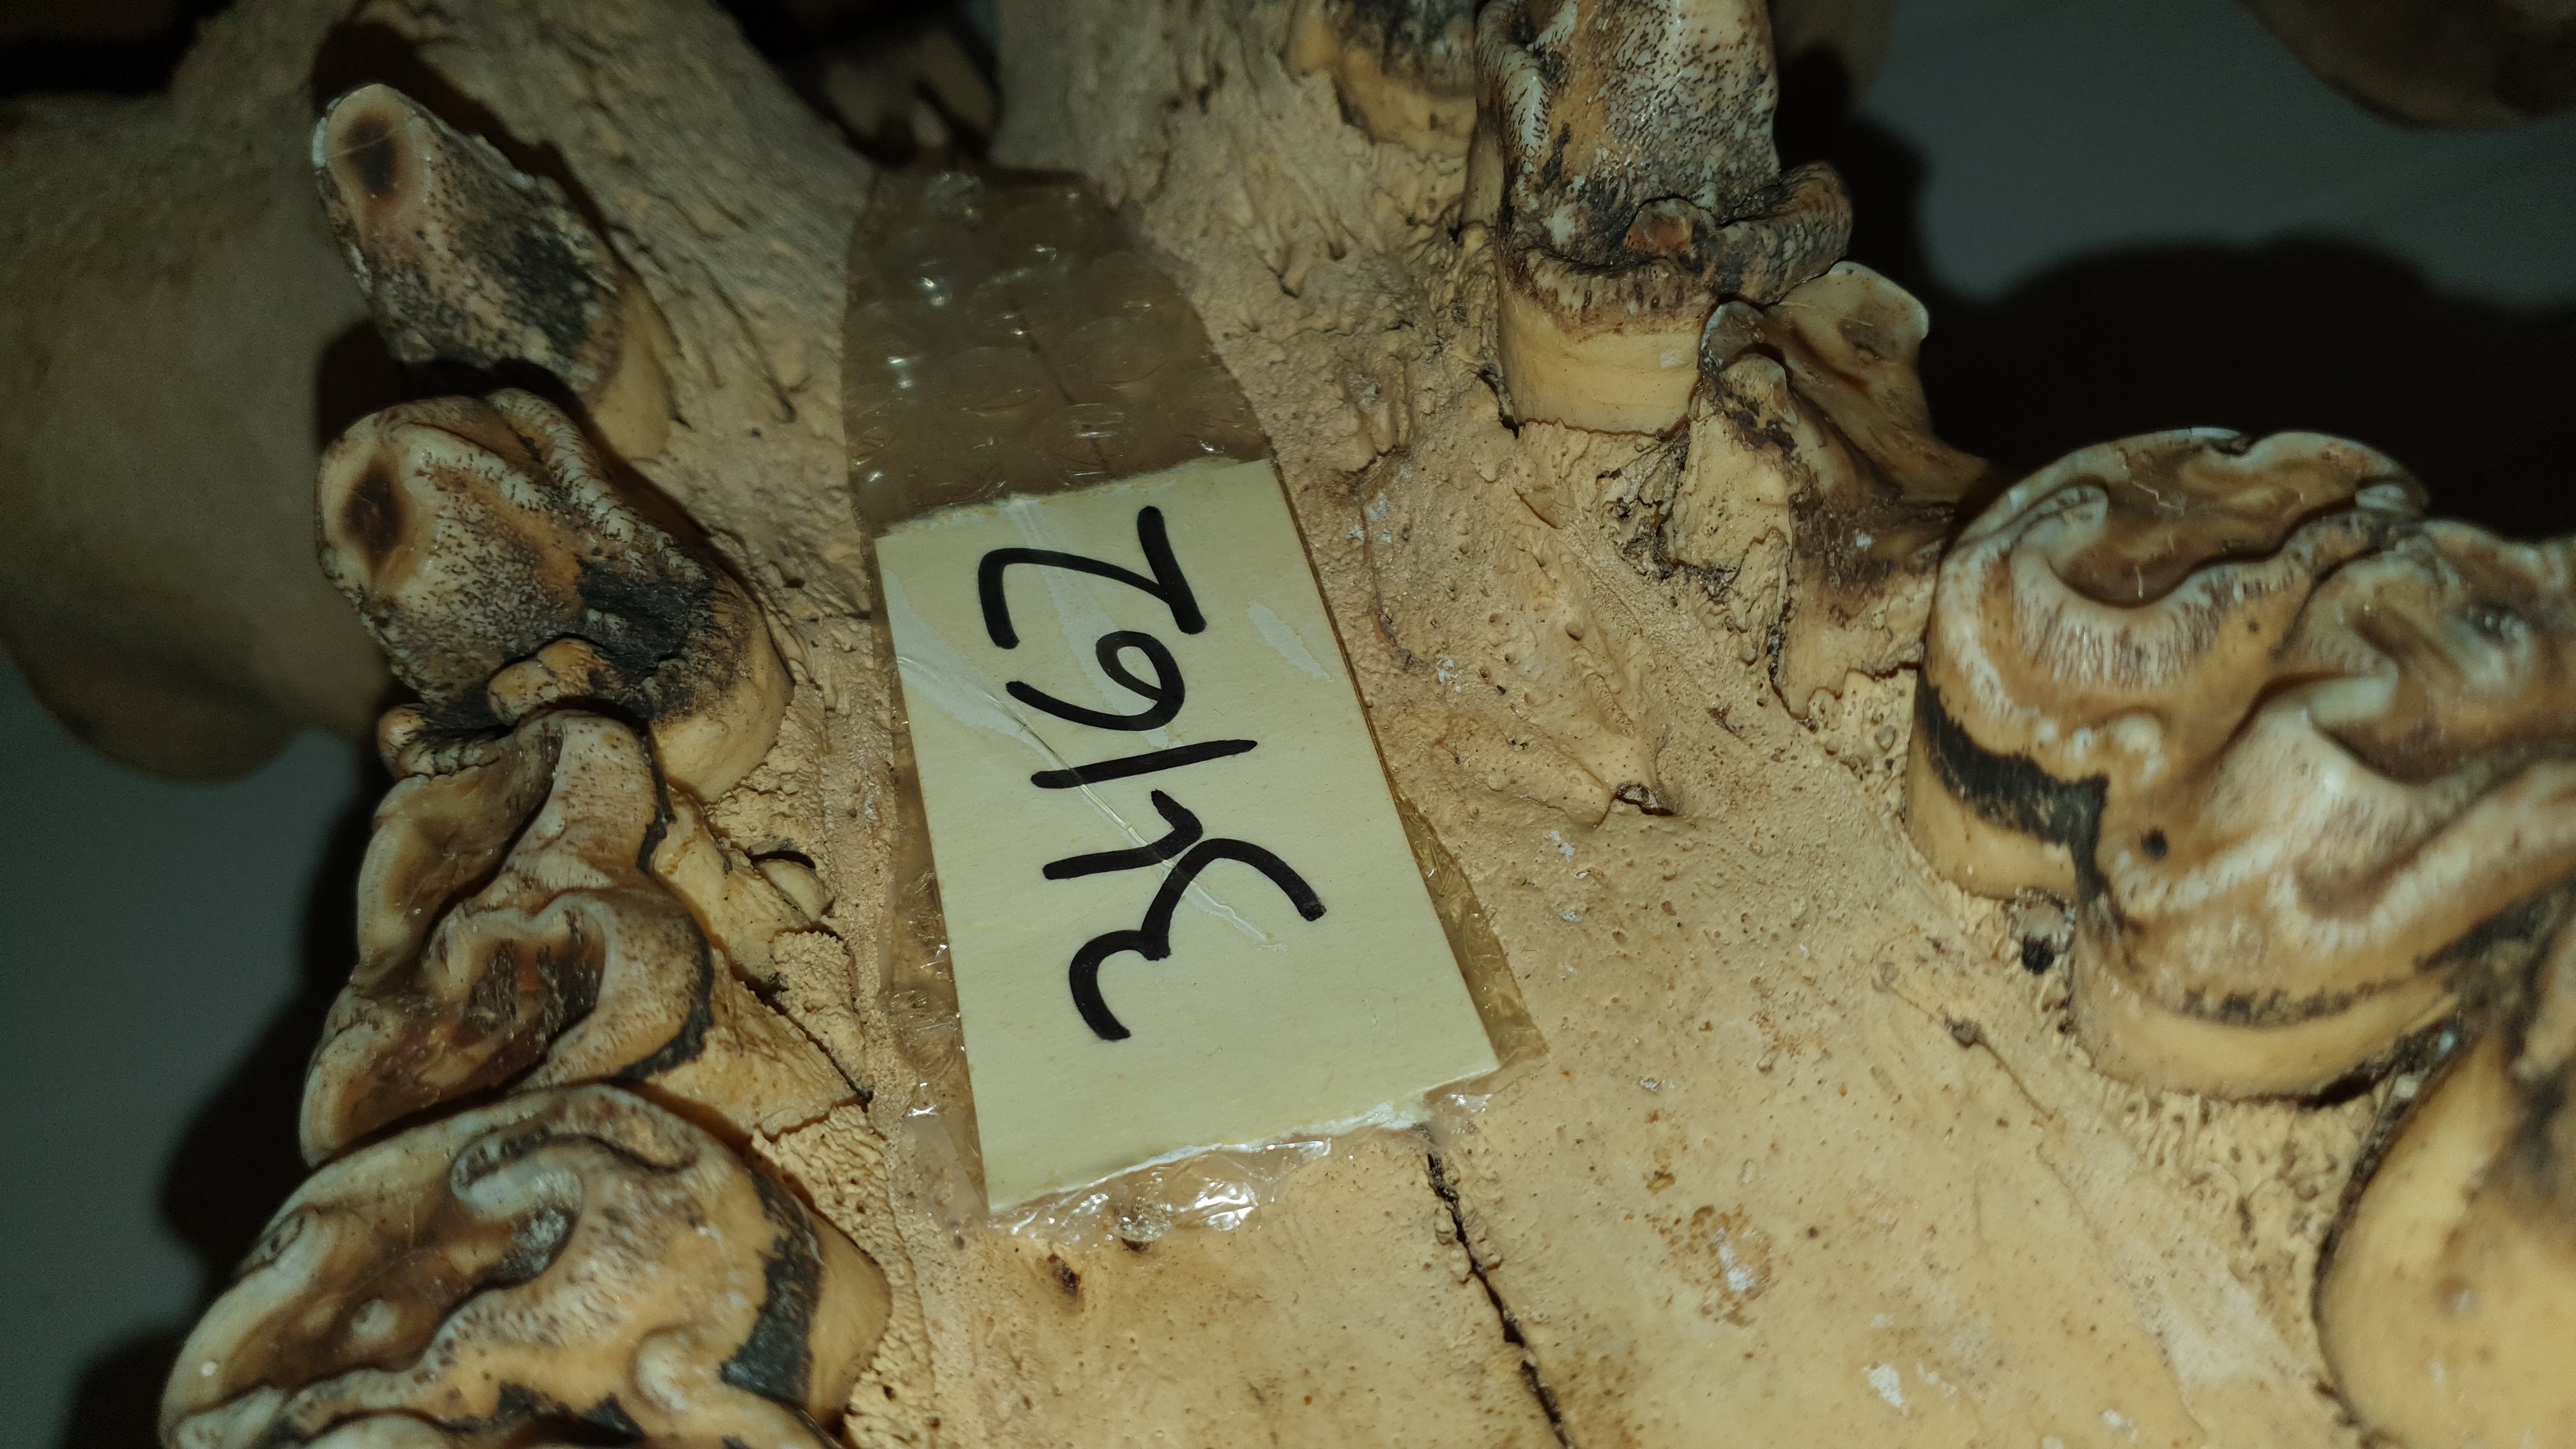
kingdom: Animalia
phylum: Chordata
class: Mammalia
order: Artiodactyla
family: Hippopotamidae
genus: Hippopotamus
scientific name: Hippopotamus amphibius
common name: Common hippopotamus
